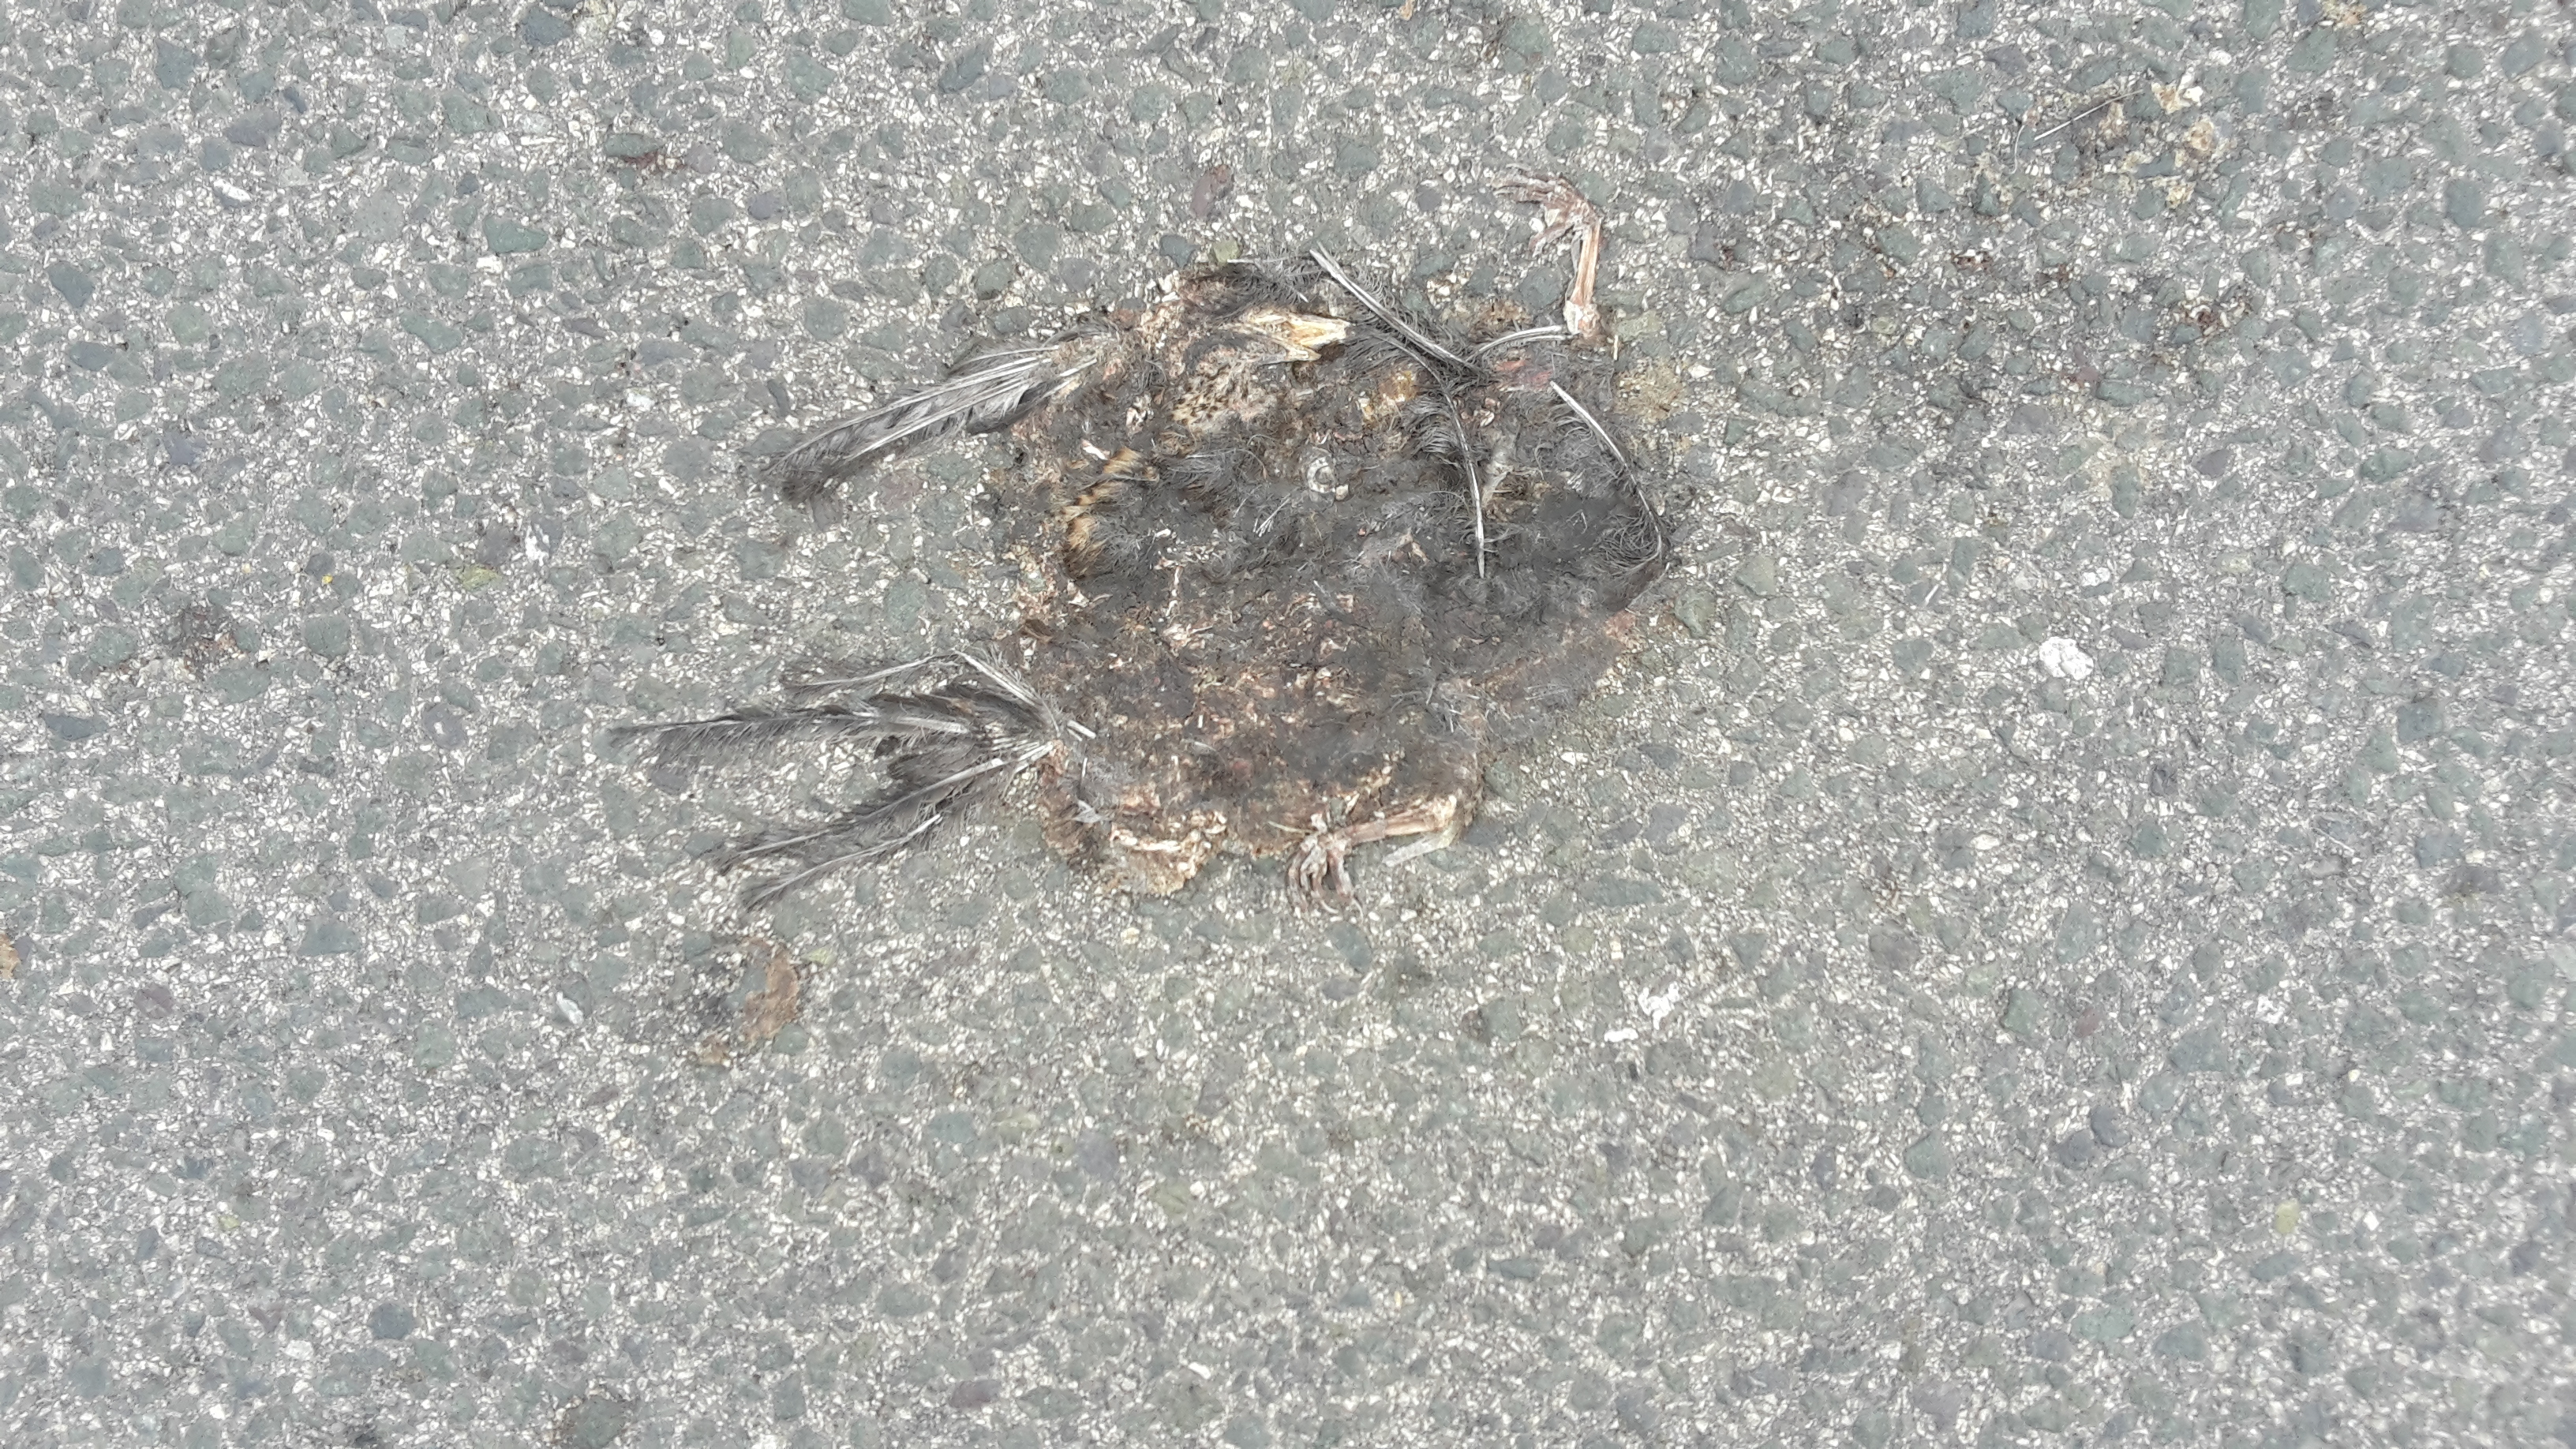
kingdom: Animalia
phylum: Chordata
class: Aves
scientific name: Aves
